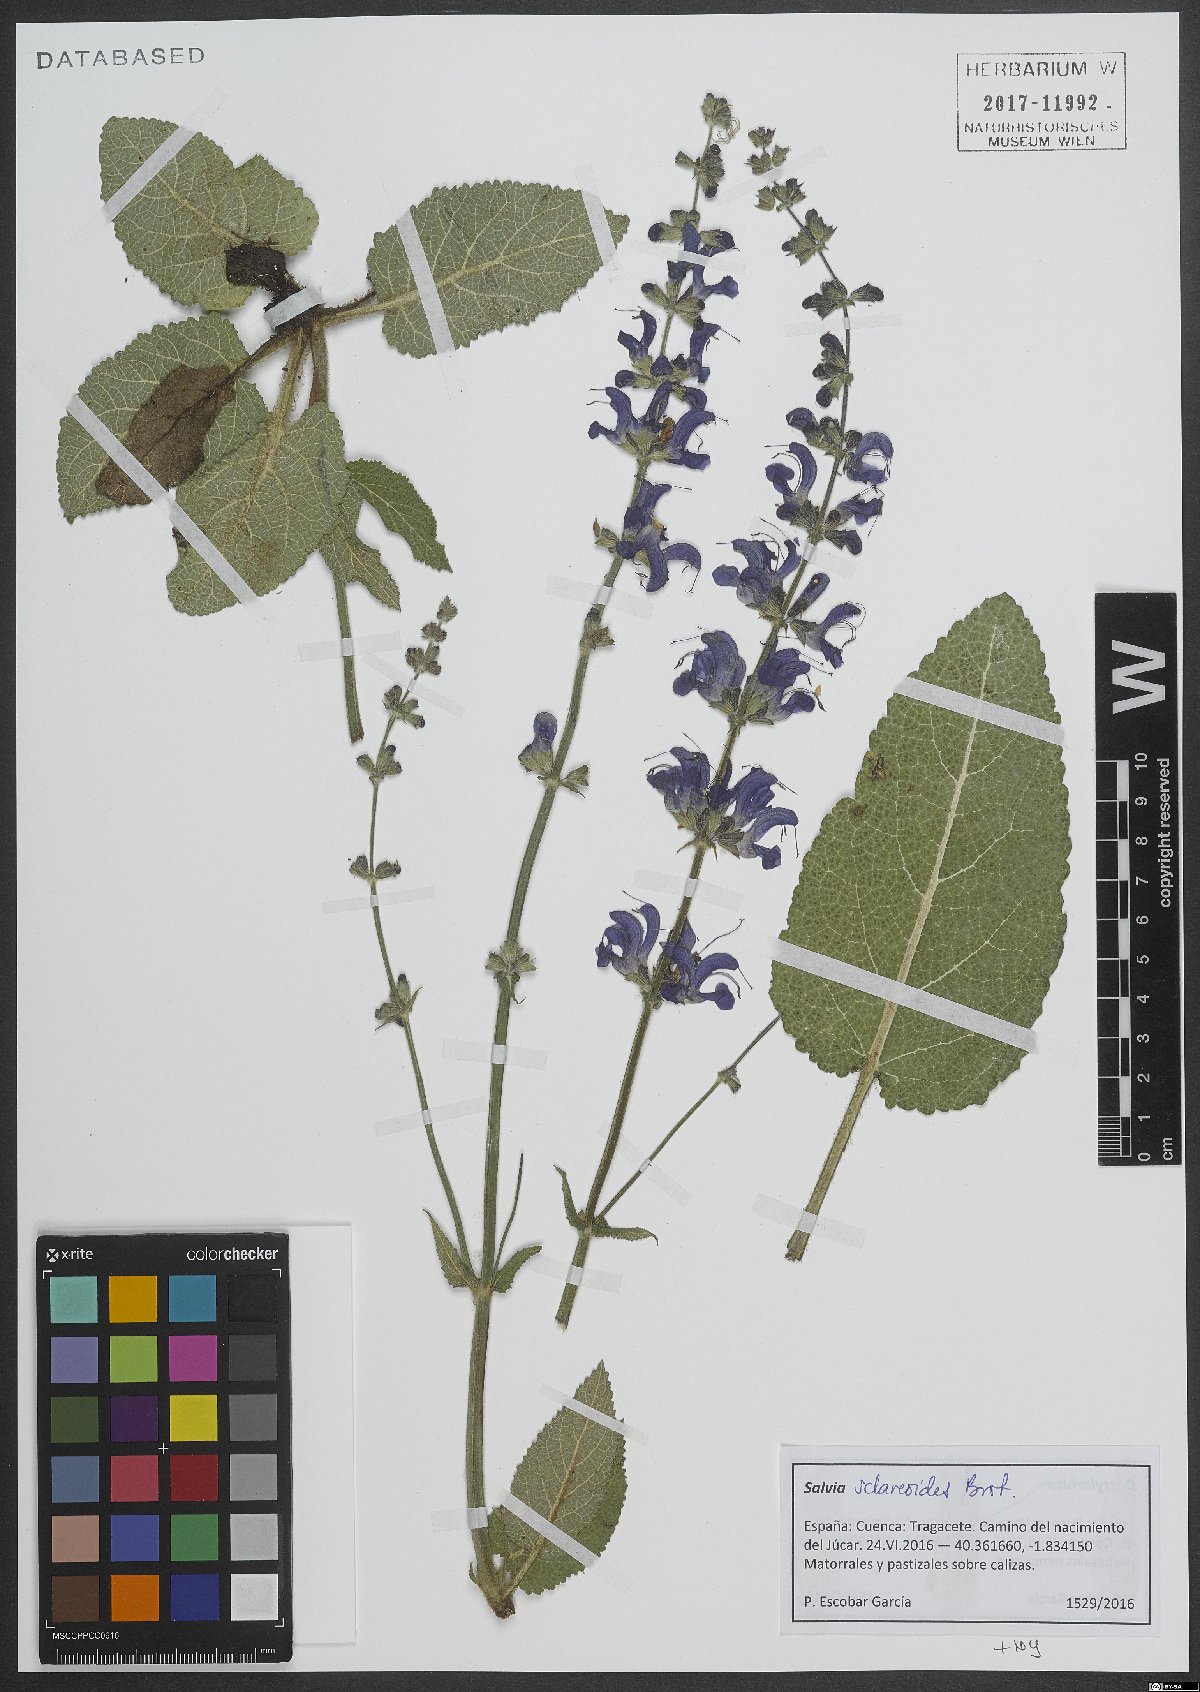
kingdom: Plantae
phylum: Tracheophyta
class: Magnoliopsida
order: Lamiales
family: Lamiaceae
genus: Salvia
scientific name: Salvia sclareoides
